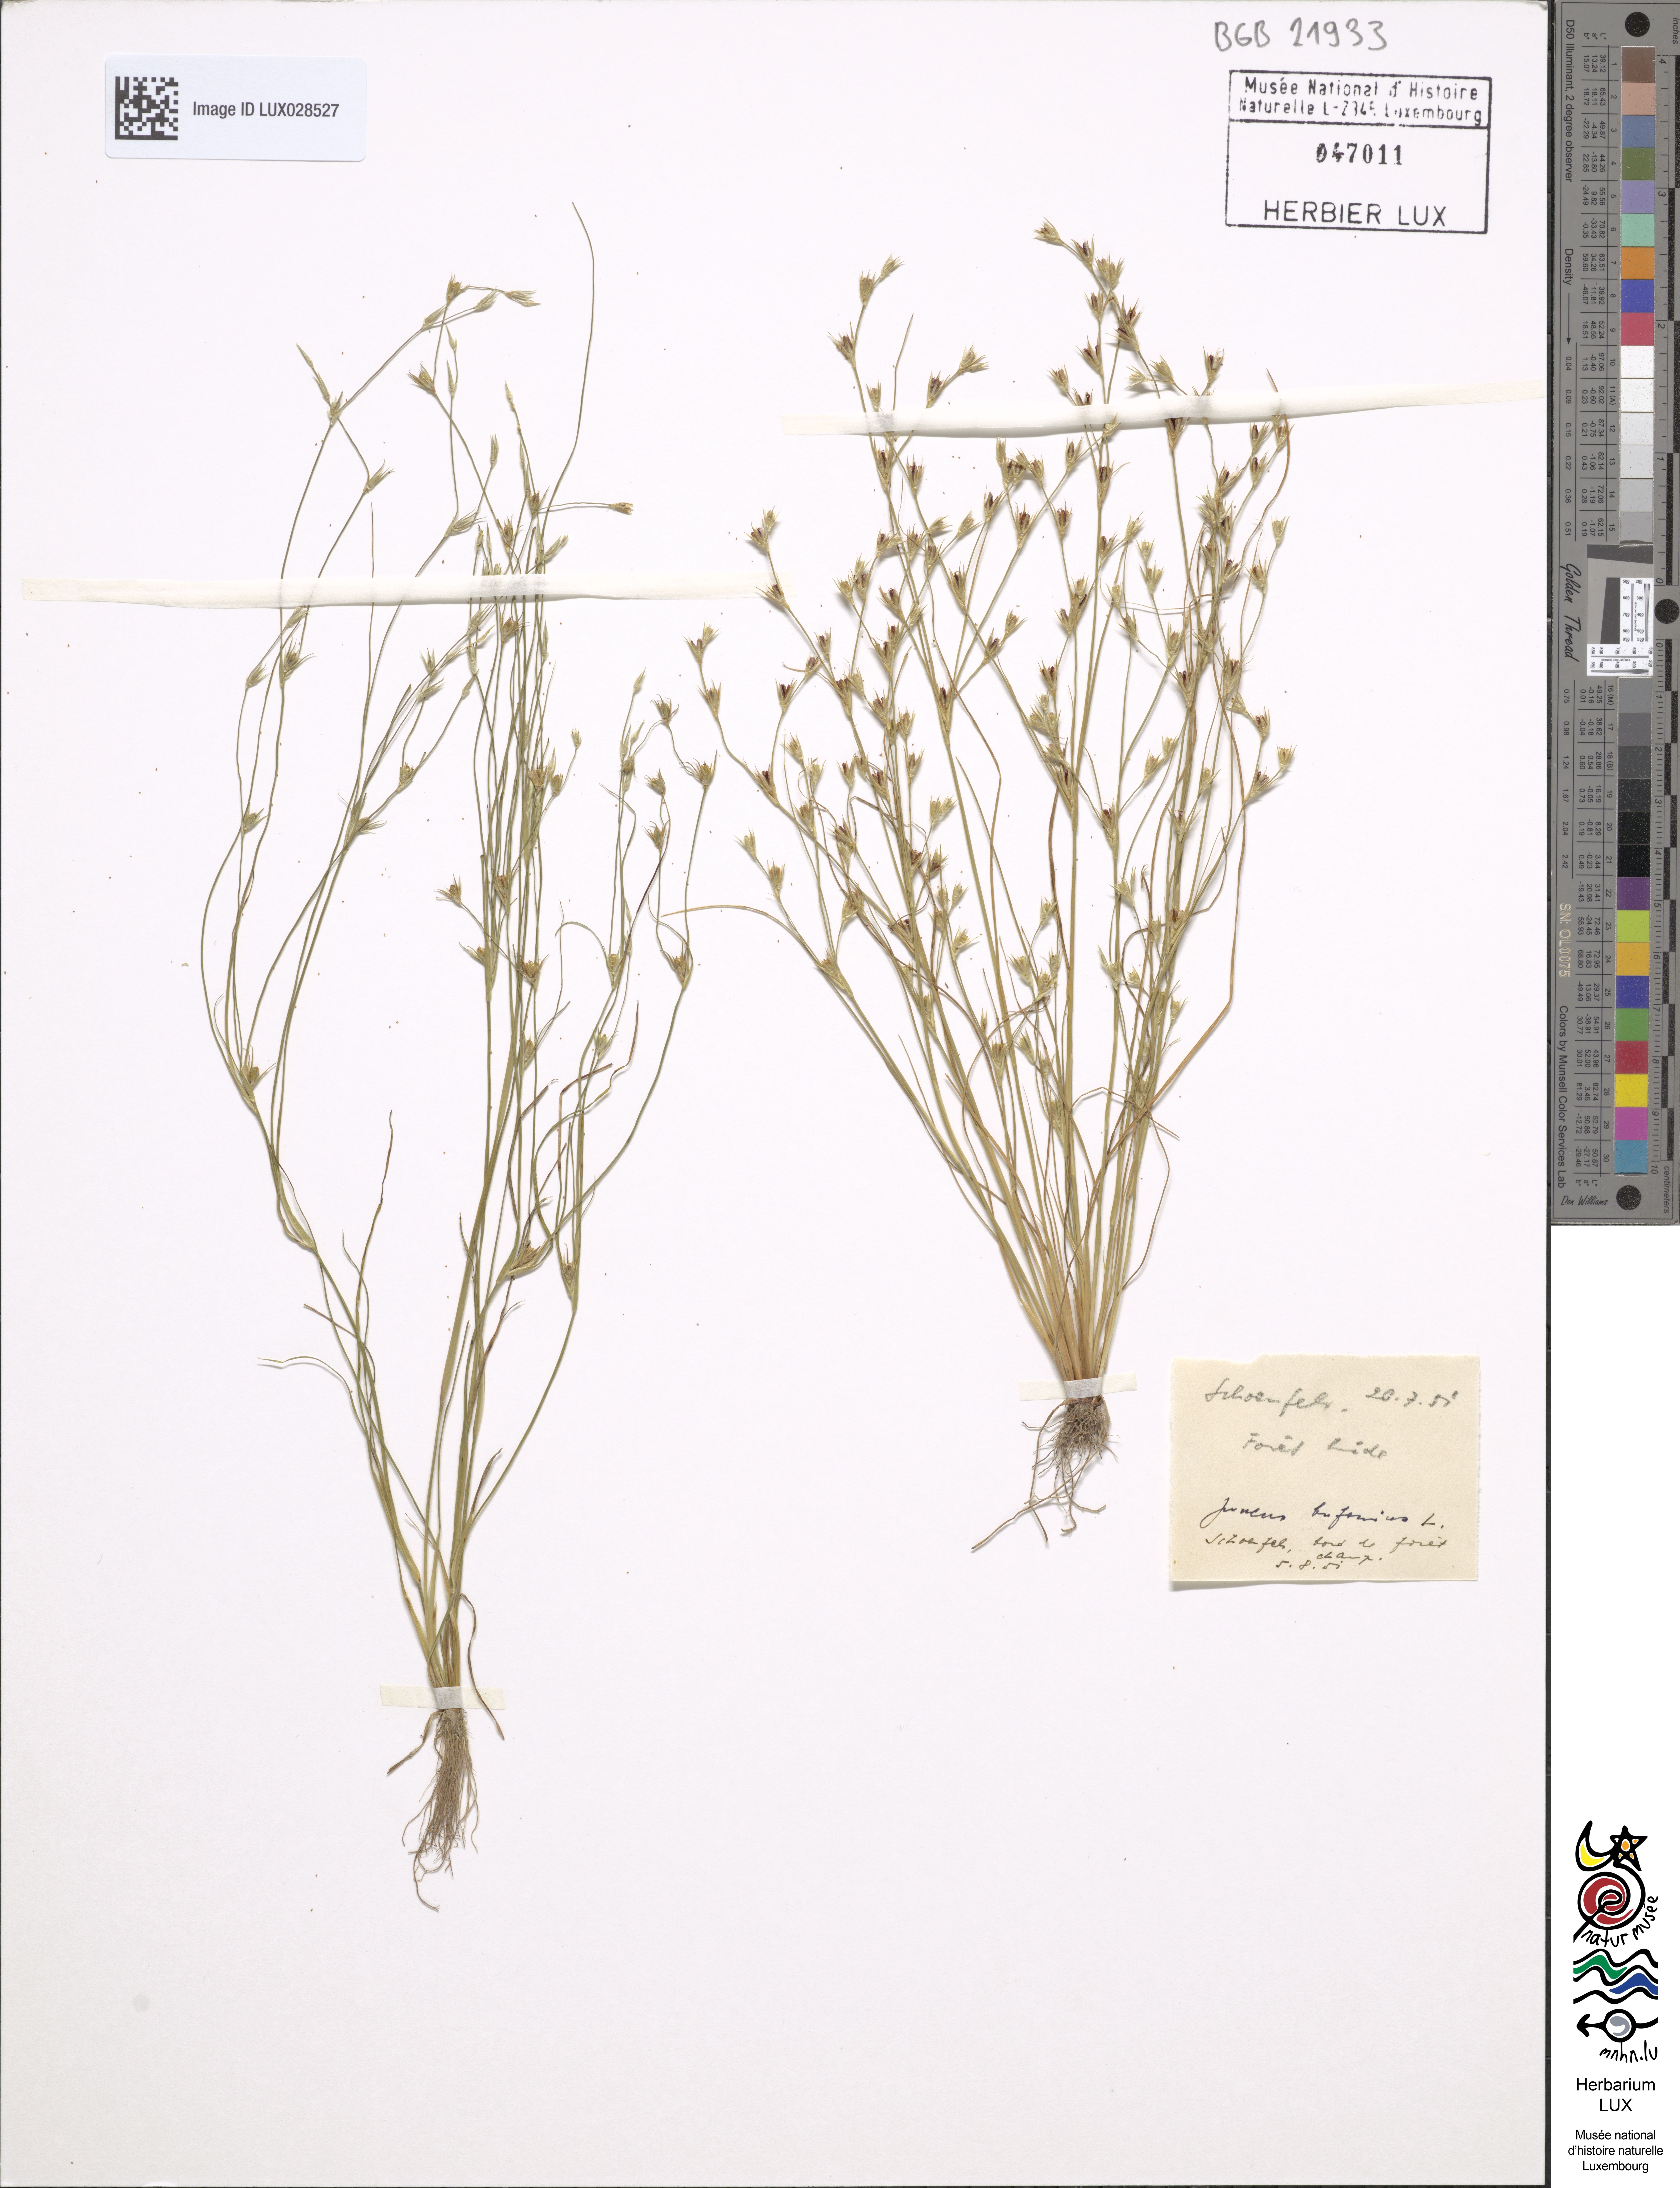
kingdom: Plantae
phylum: Tracheophyta
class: Liliopsida
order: Poales
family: Juncaceae
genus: Juncus
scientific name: Juncus bufonius
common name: Toad rush
